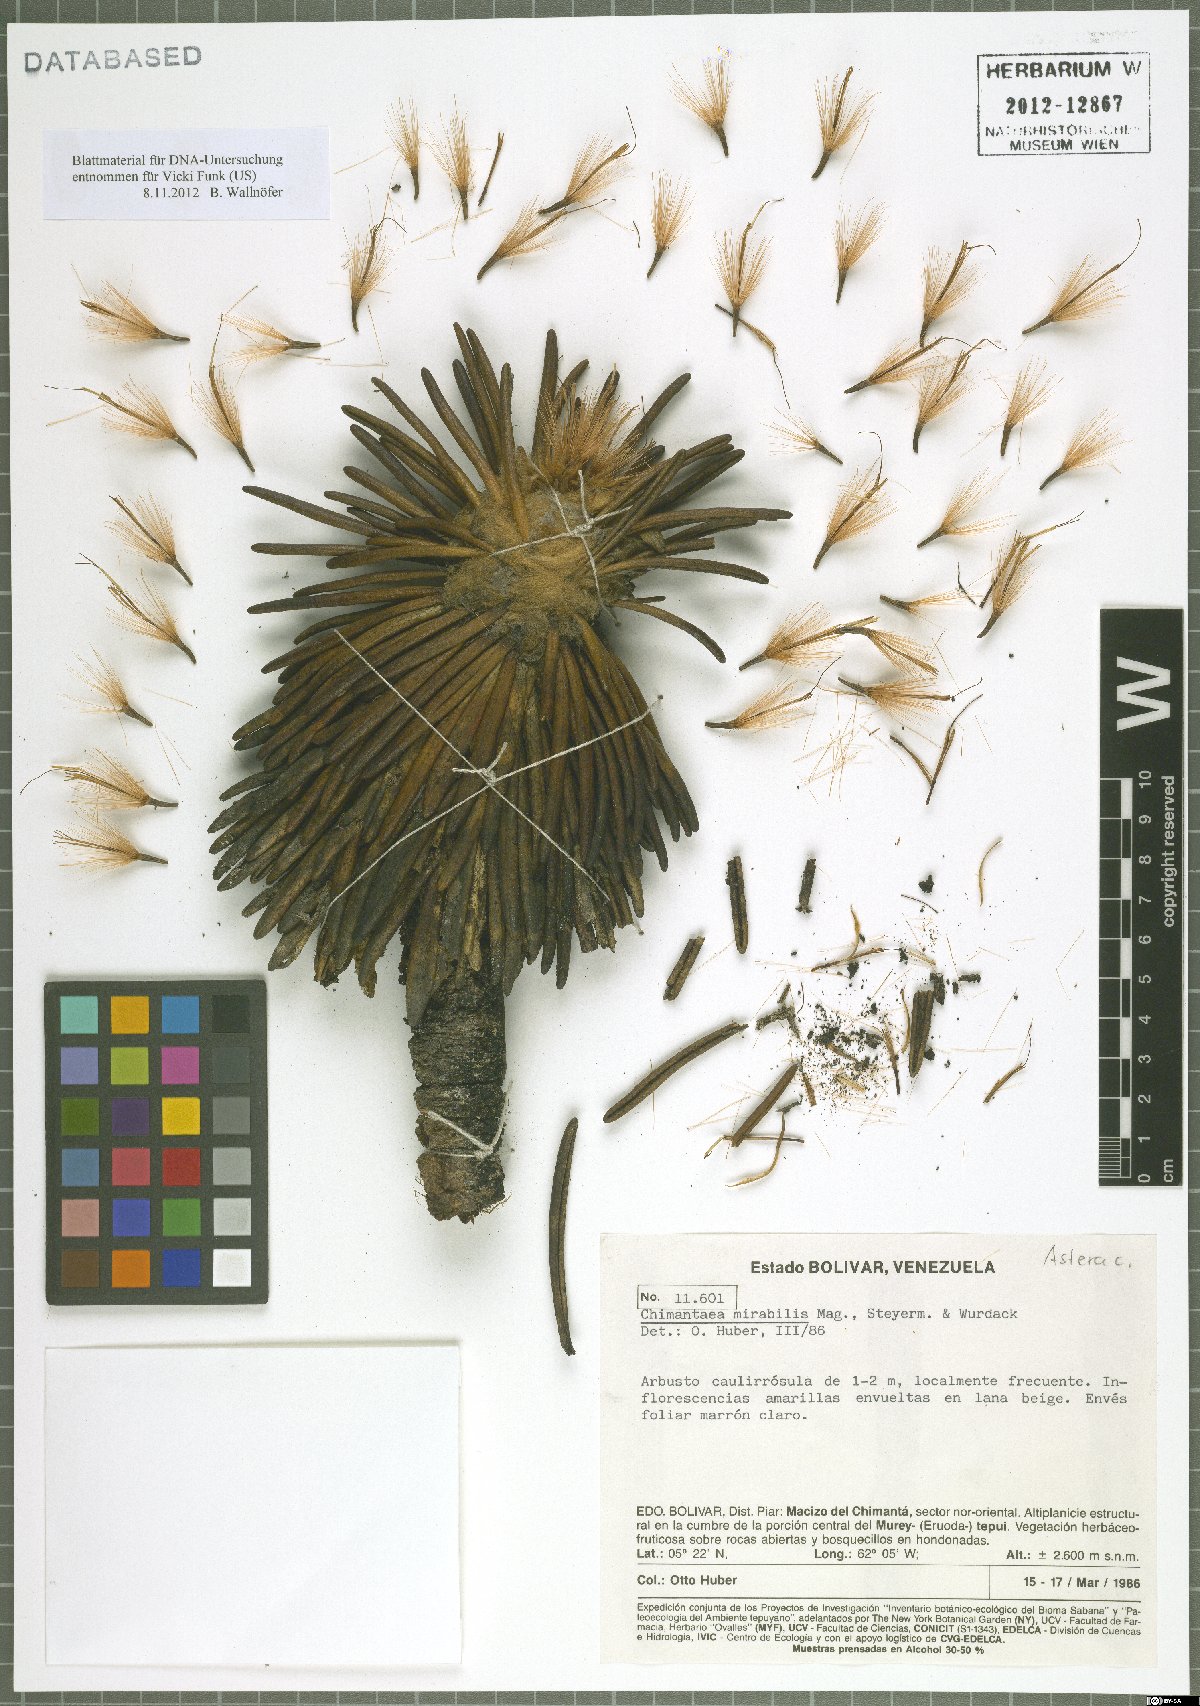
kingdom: Plantae
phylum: Tracheophyta
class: Magnoliopsida
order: Asterales
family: Asteraceae
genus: Chimantaea
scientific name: Chimantaea mirabilis
